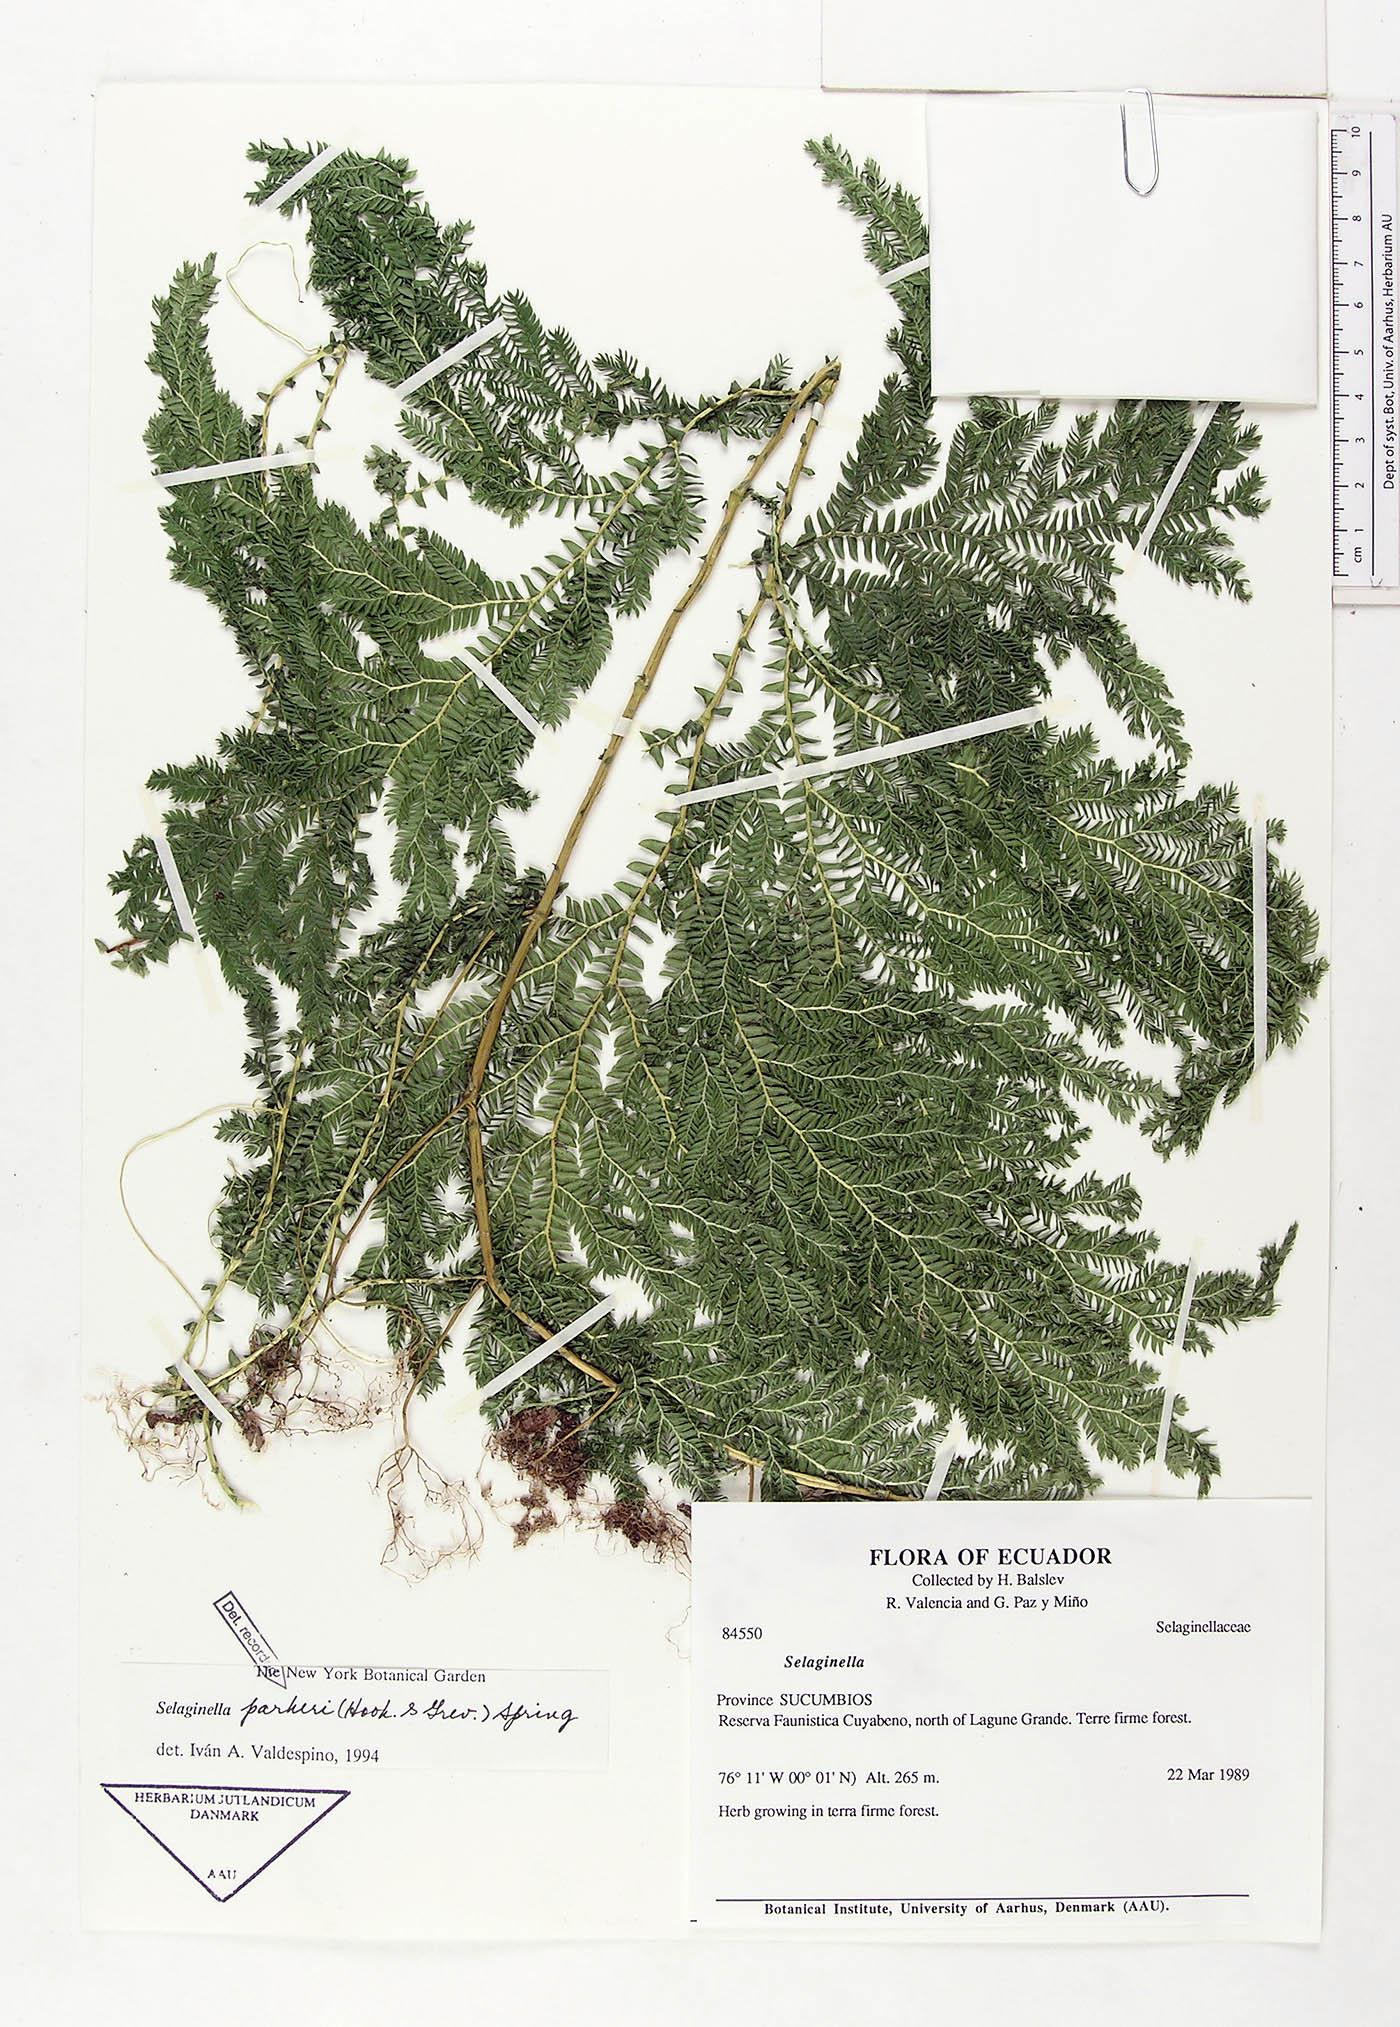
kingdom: Plantae
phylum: Tracheophyta
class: Lycopodiopsida
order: Selaginellales
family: Selaginellaceae
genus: Selaginella
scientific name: Selaginella parkeri
